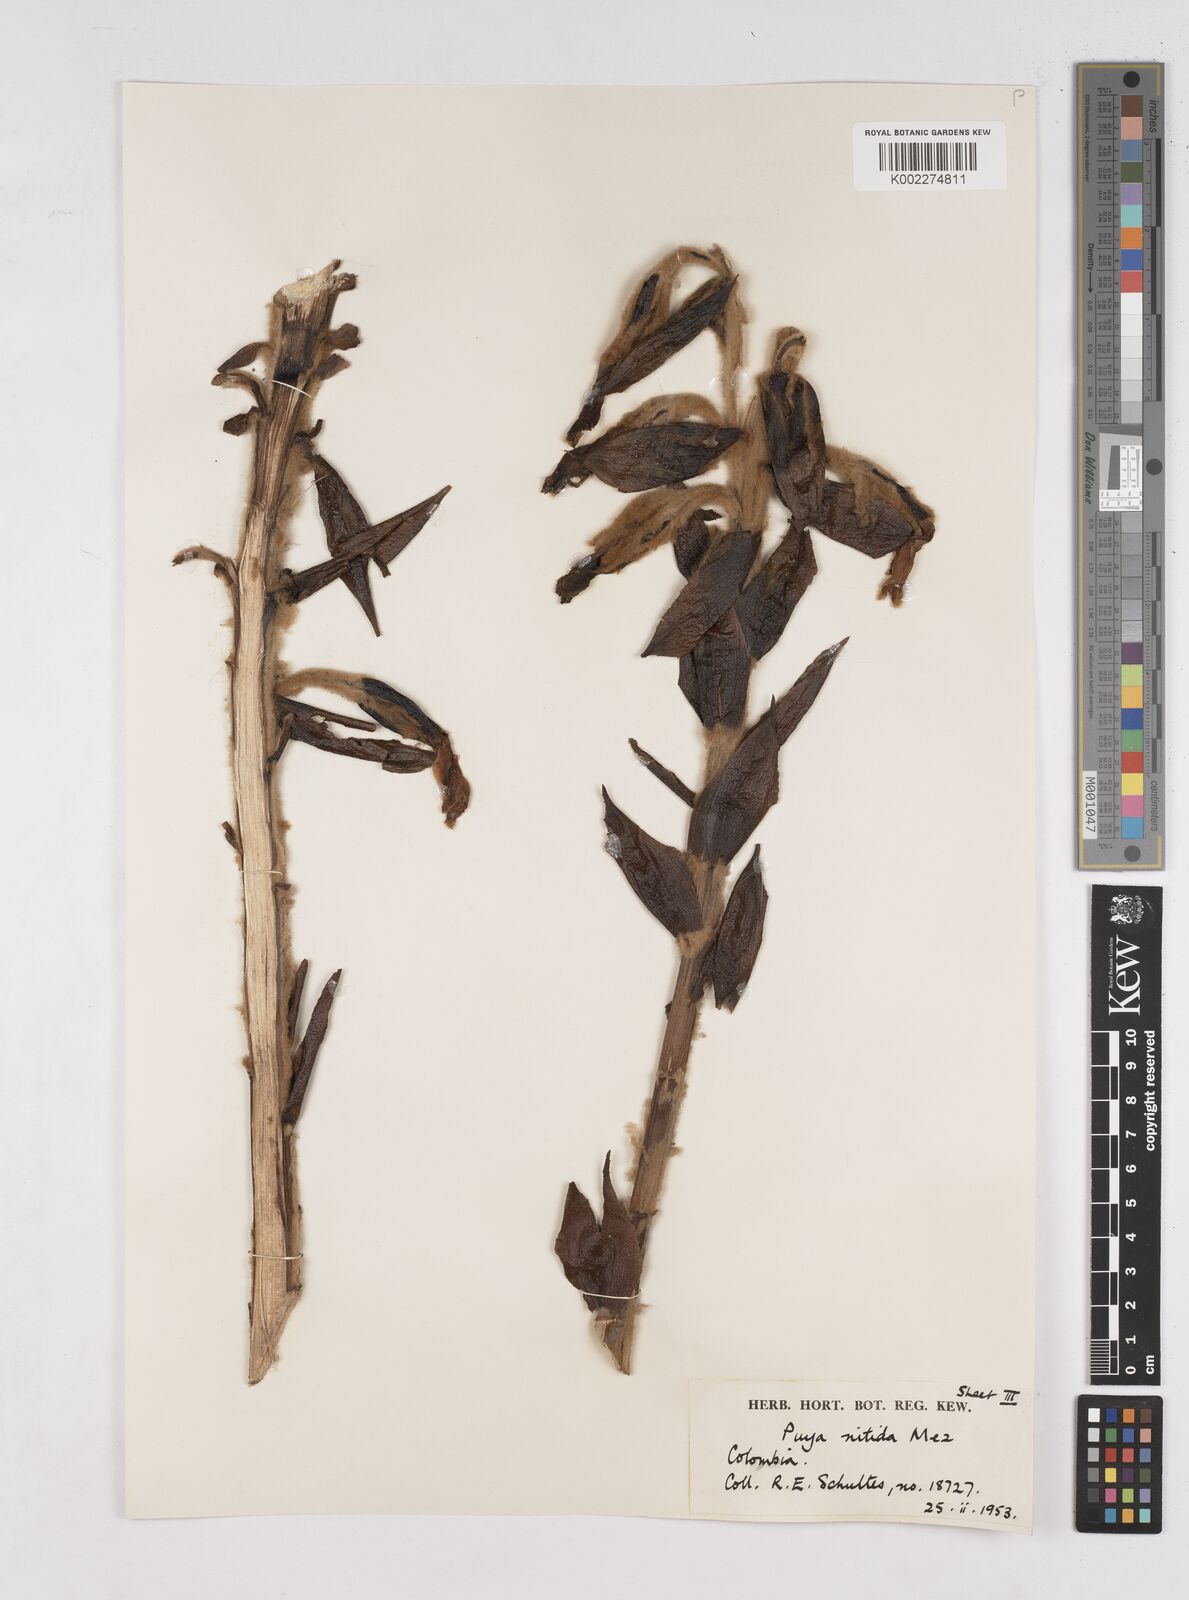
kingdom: Plantae
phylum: Tracheophyta
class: Liliopsida
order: Poales
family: Bromeliaceae
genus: Puya
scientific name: Puya nitida
